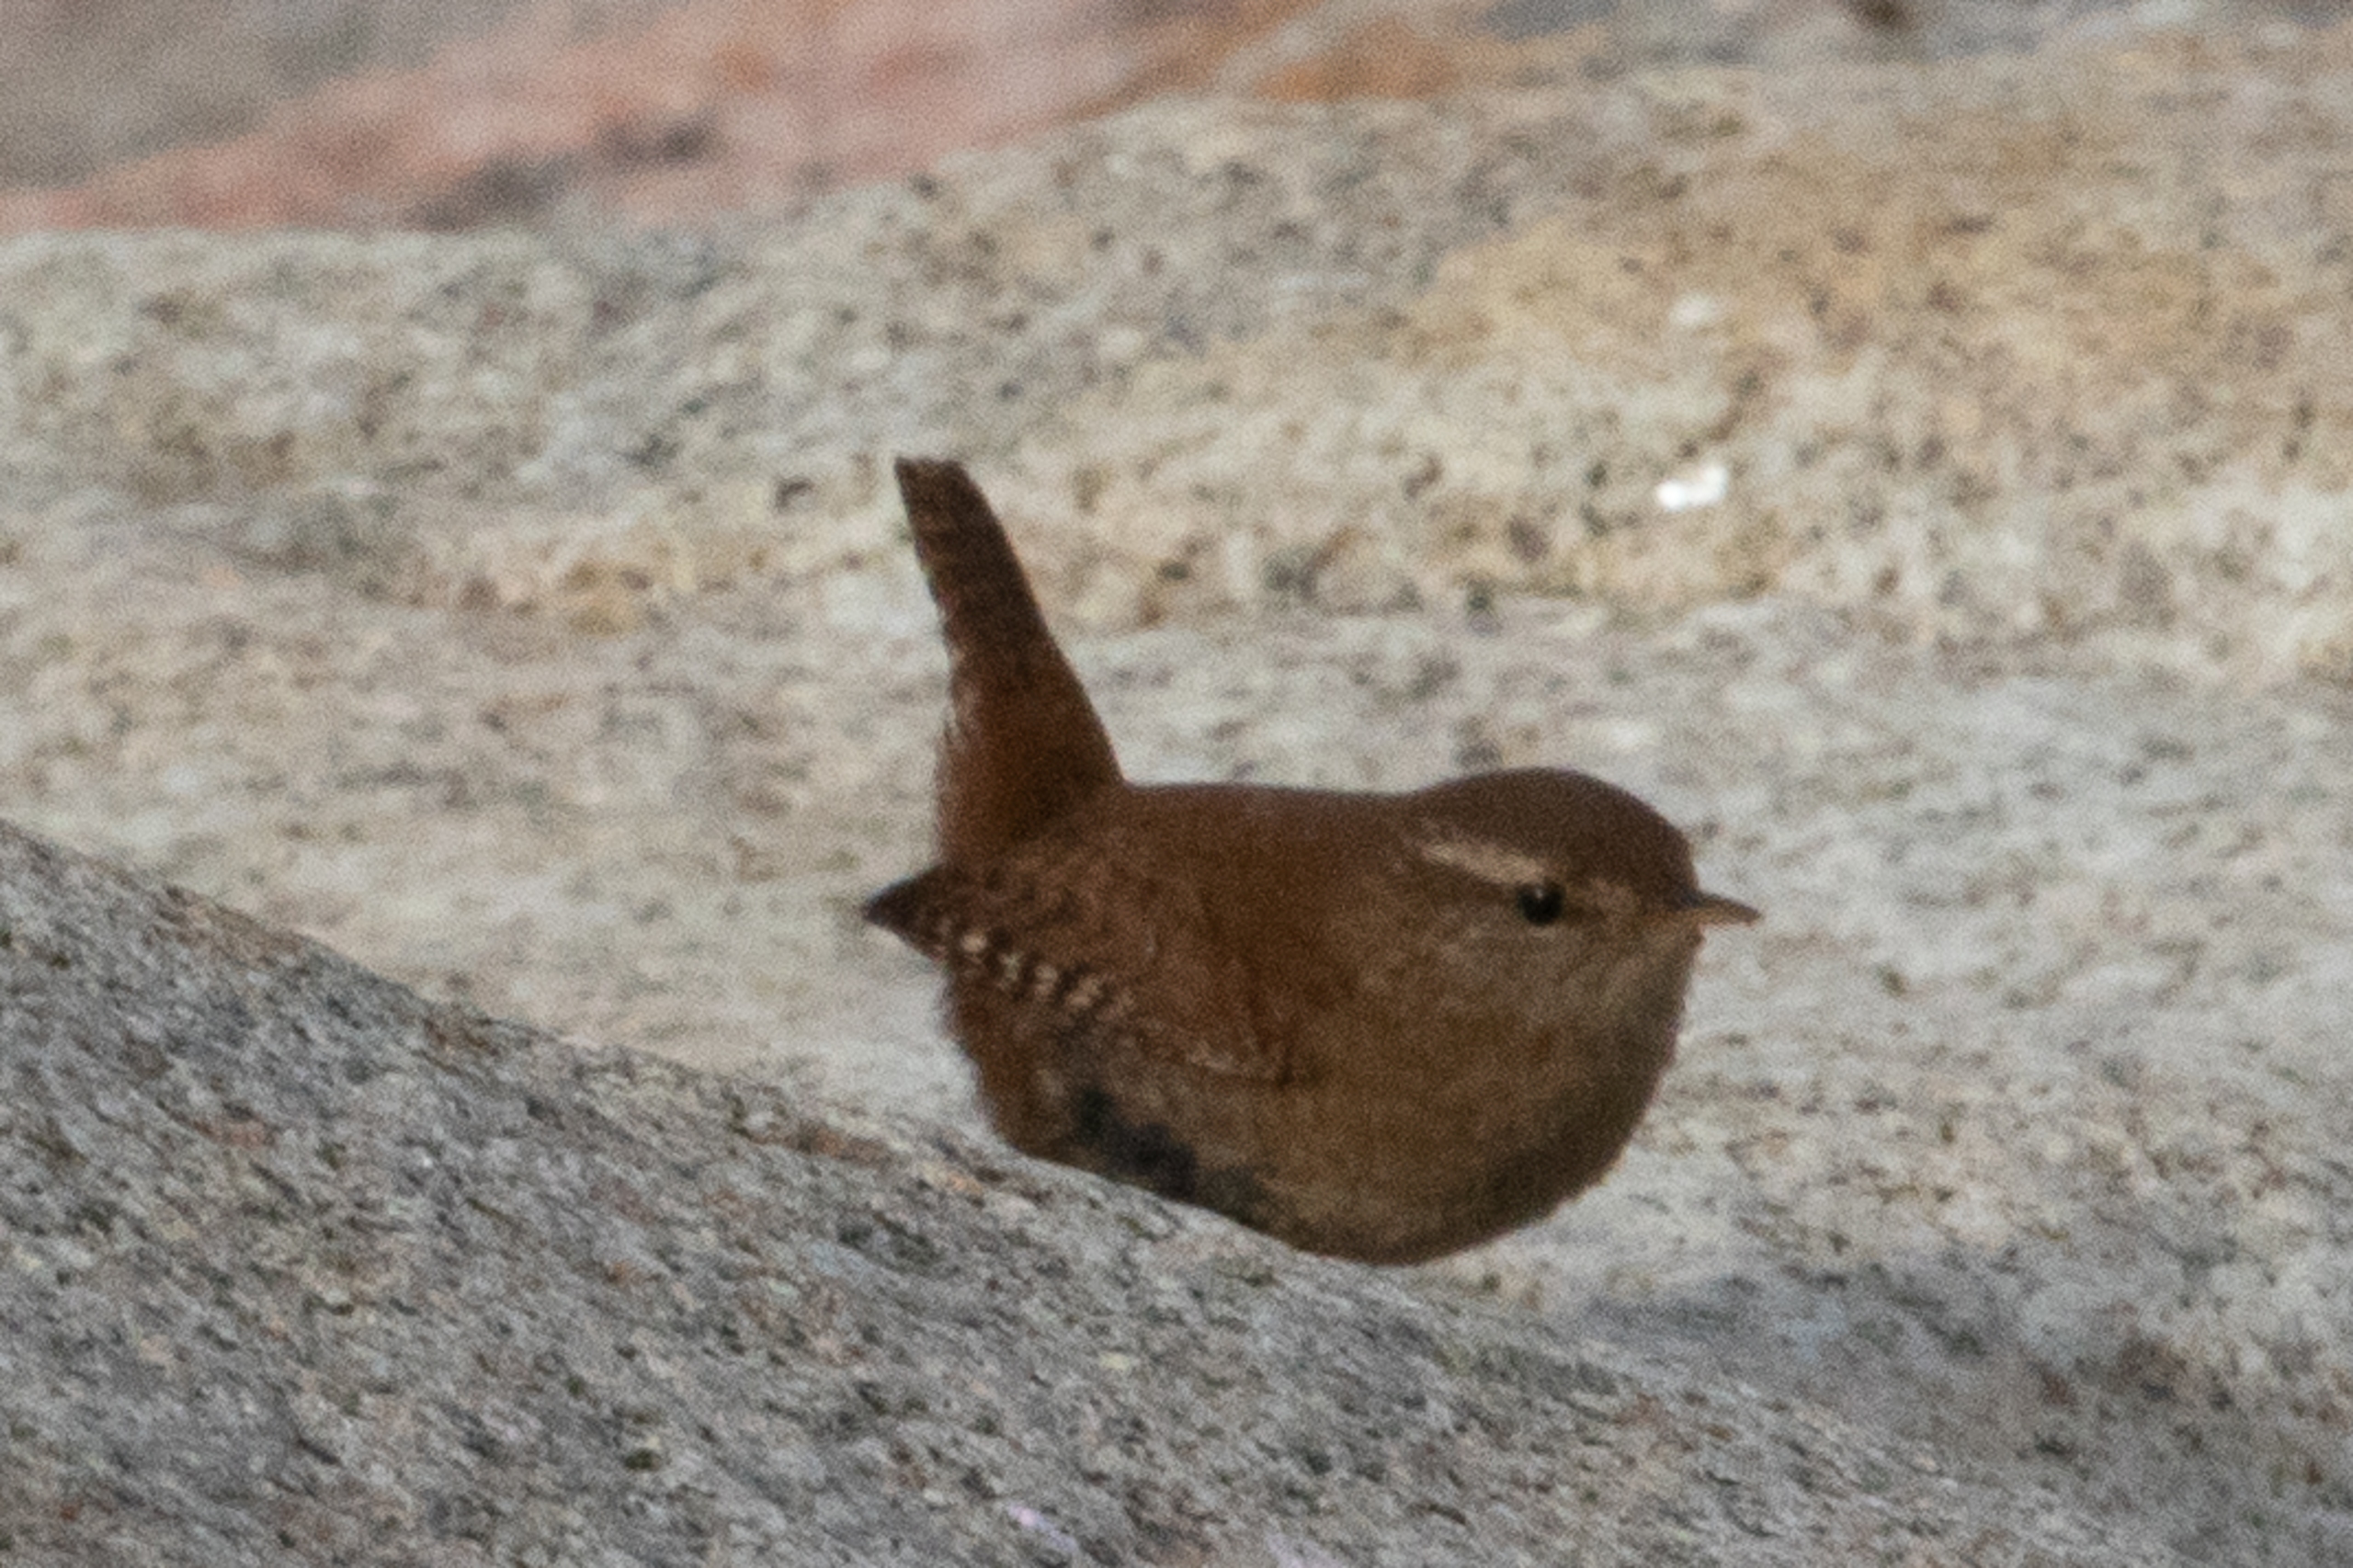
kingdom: Animalia
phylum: Chordata
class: Aves
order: Passeriformes
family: Troglodytidae
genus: Troglodytes
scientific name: Troglodytes troglodytes
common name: Gærdesmutte
